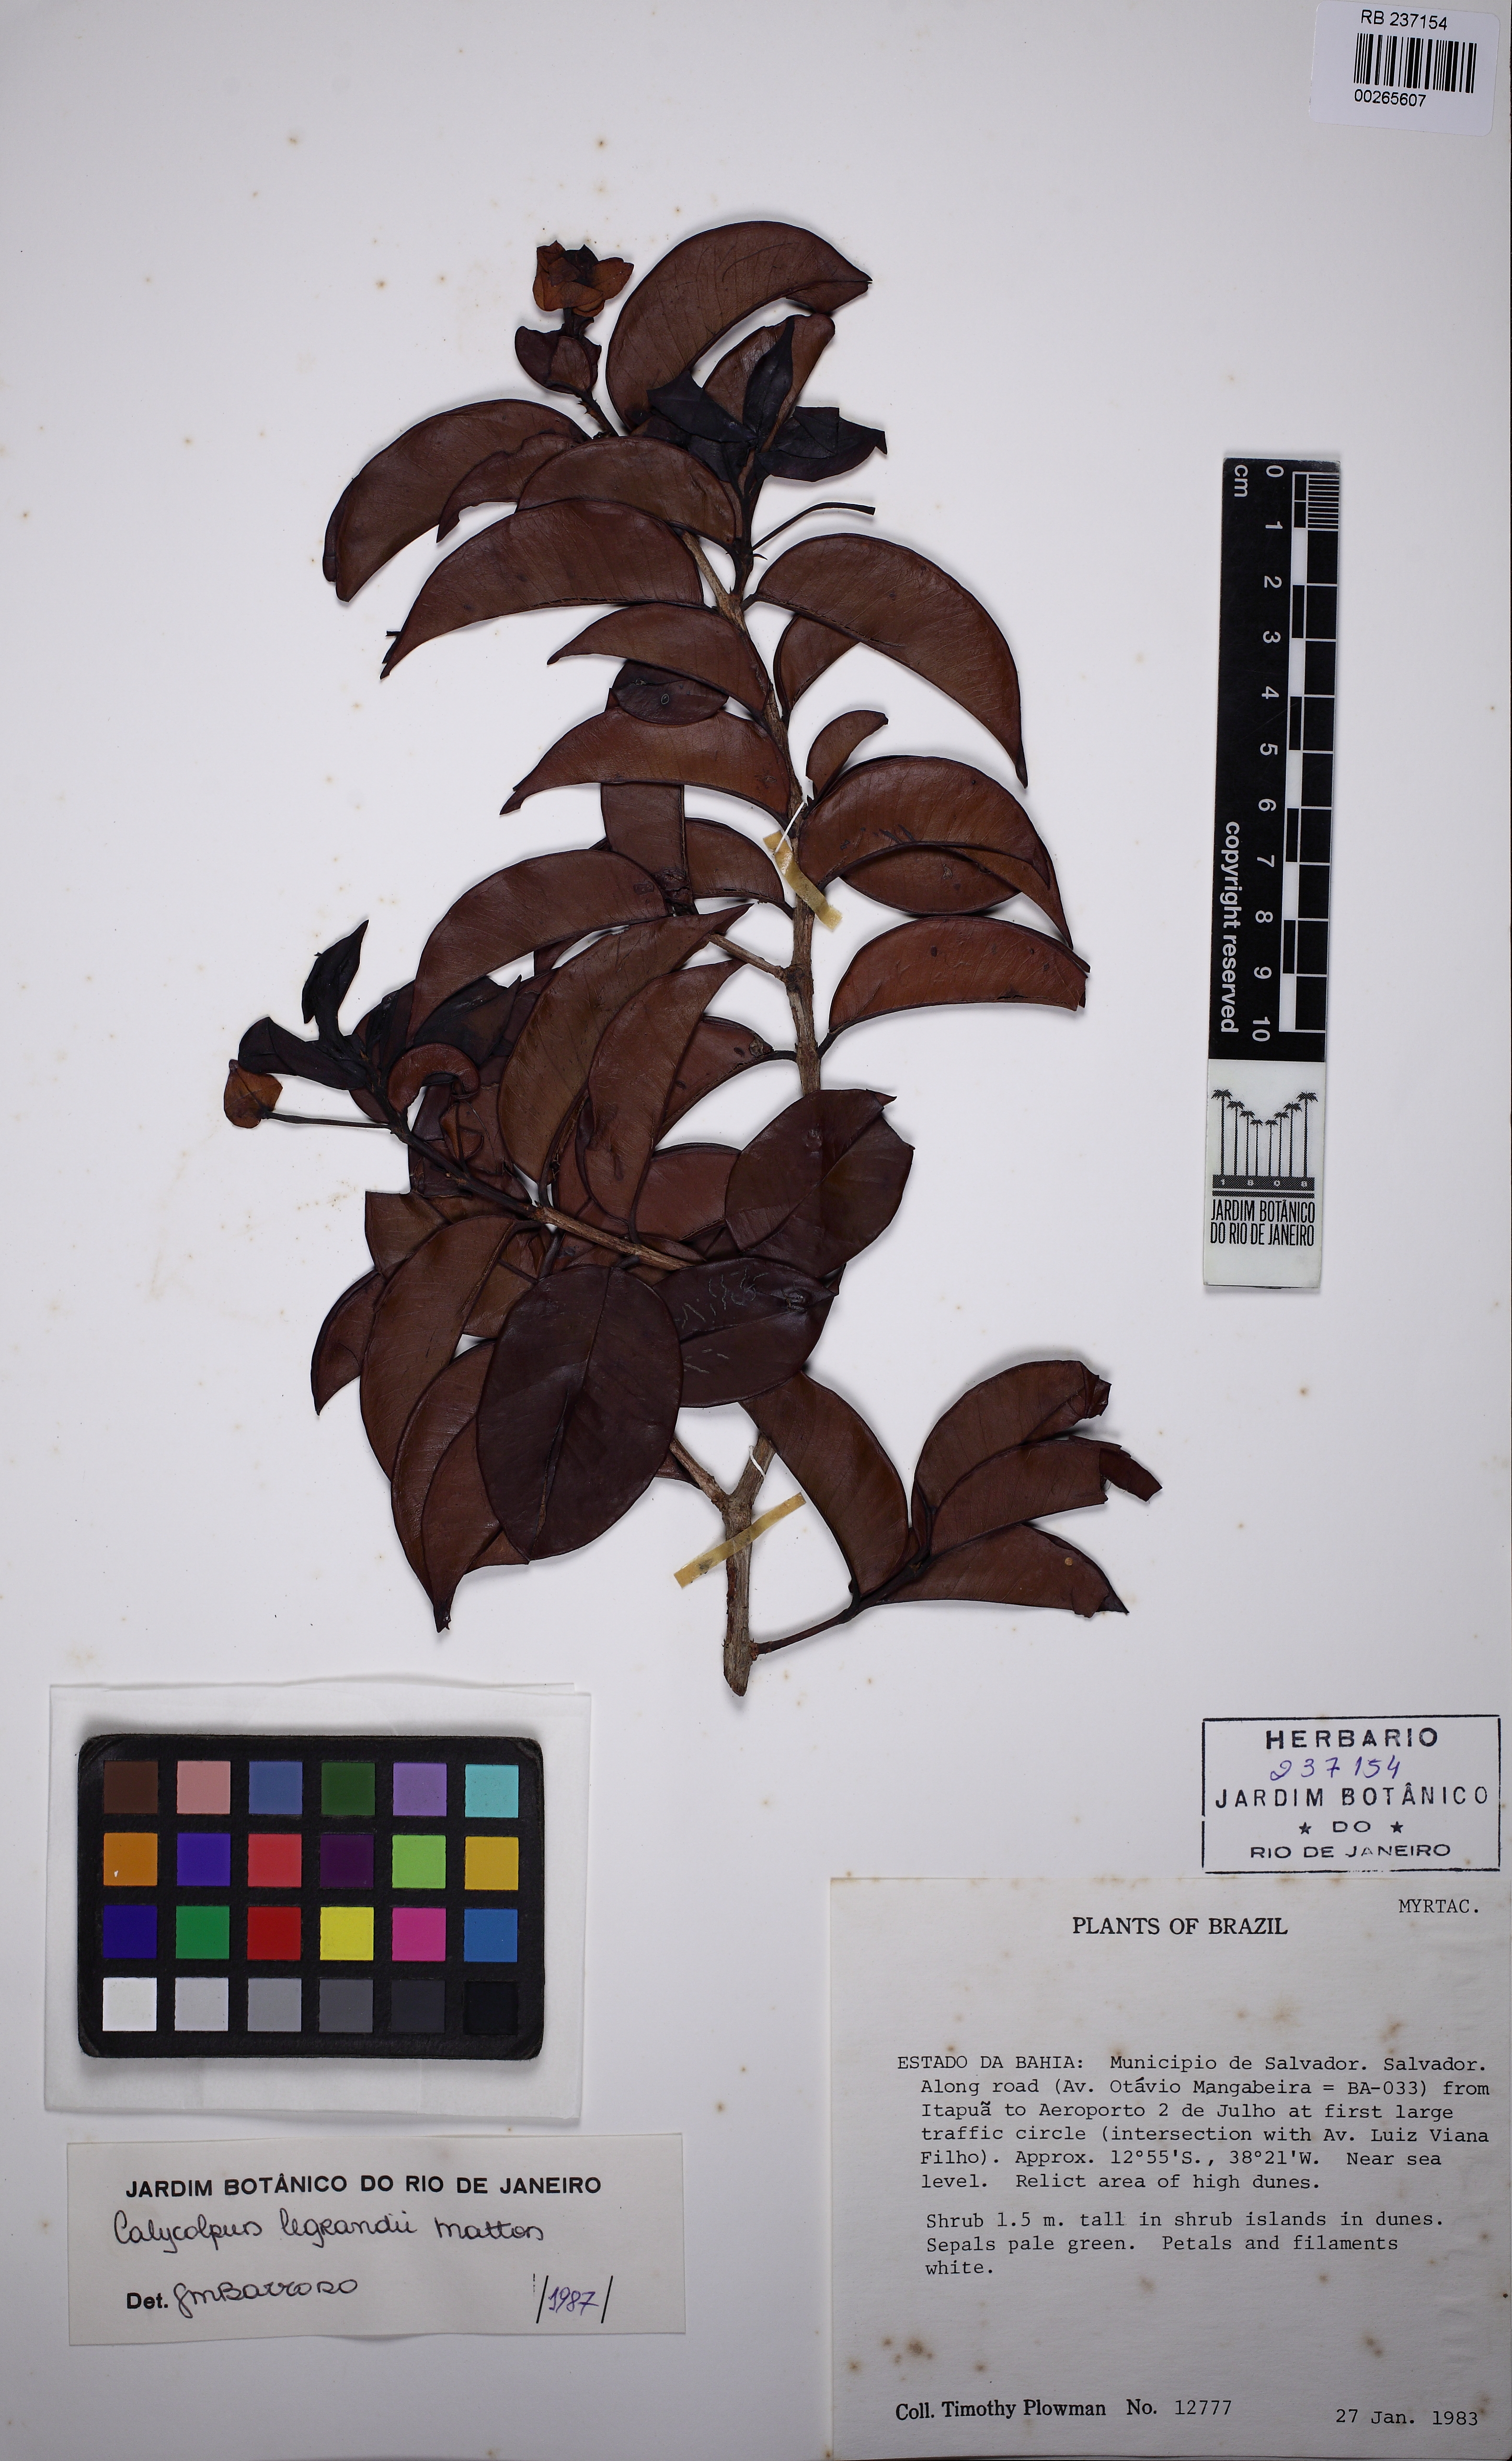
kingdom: Plantae
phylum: Tracheophyta
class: Magnoliopsida
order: Myrtales
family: Myrtaceae
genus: Calycolpus
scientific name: Calycolpus legrandii
